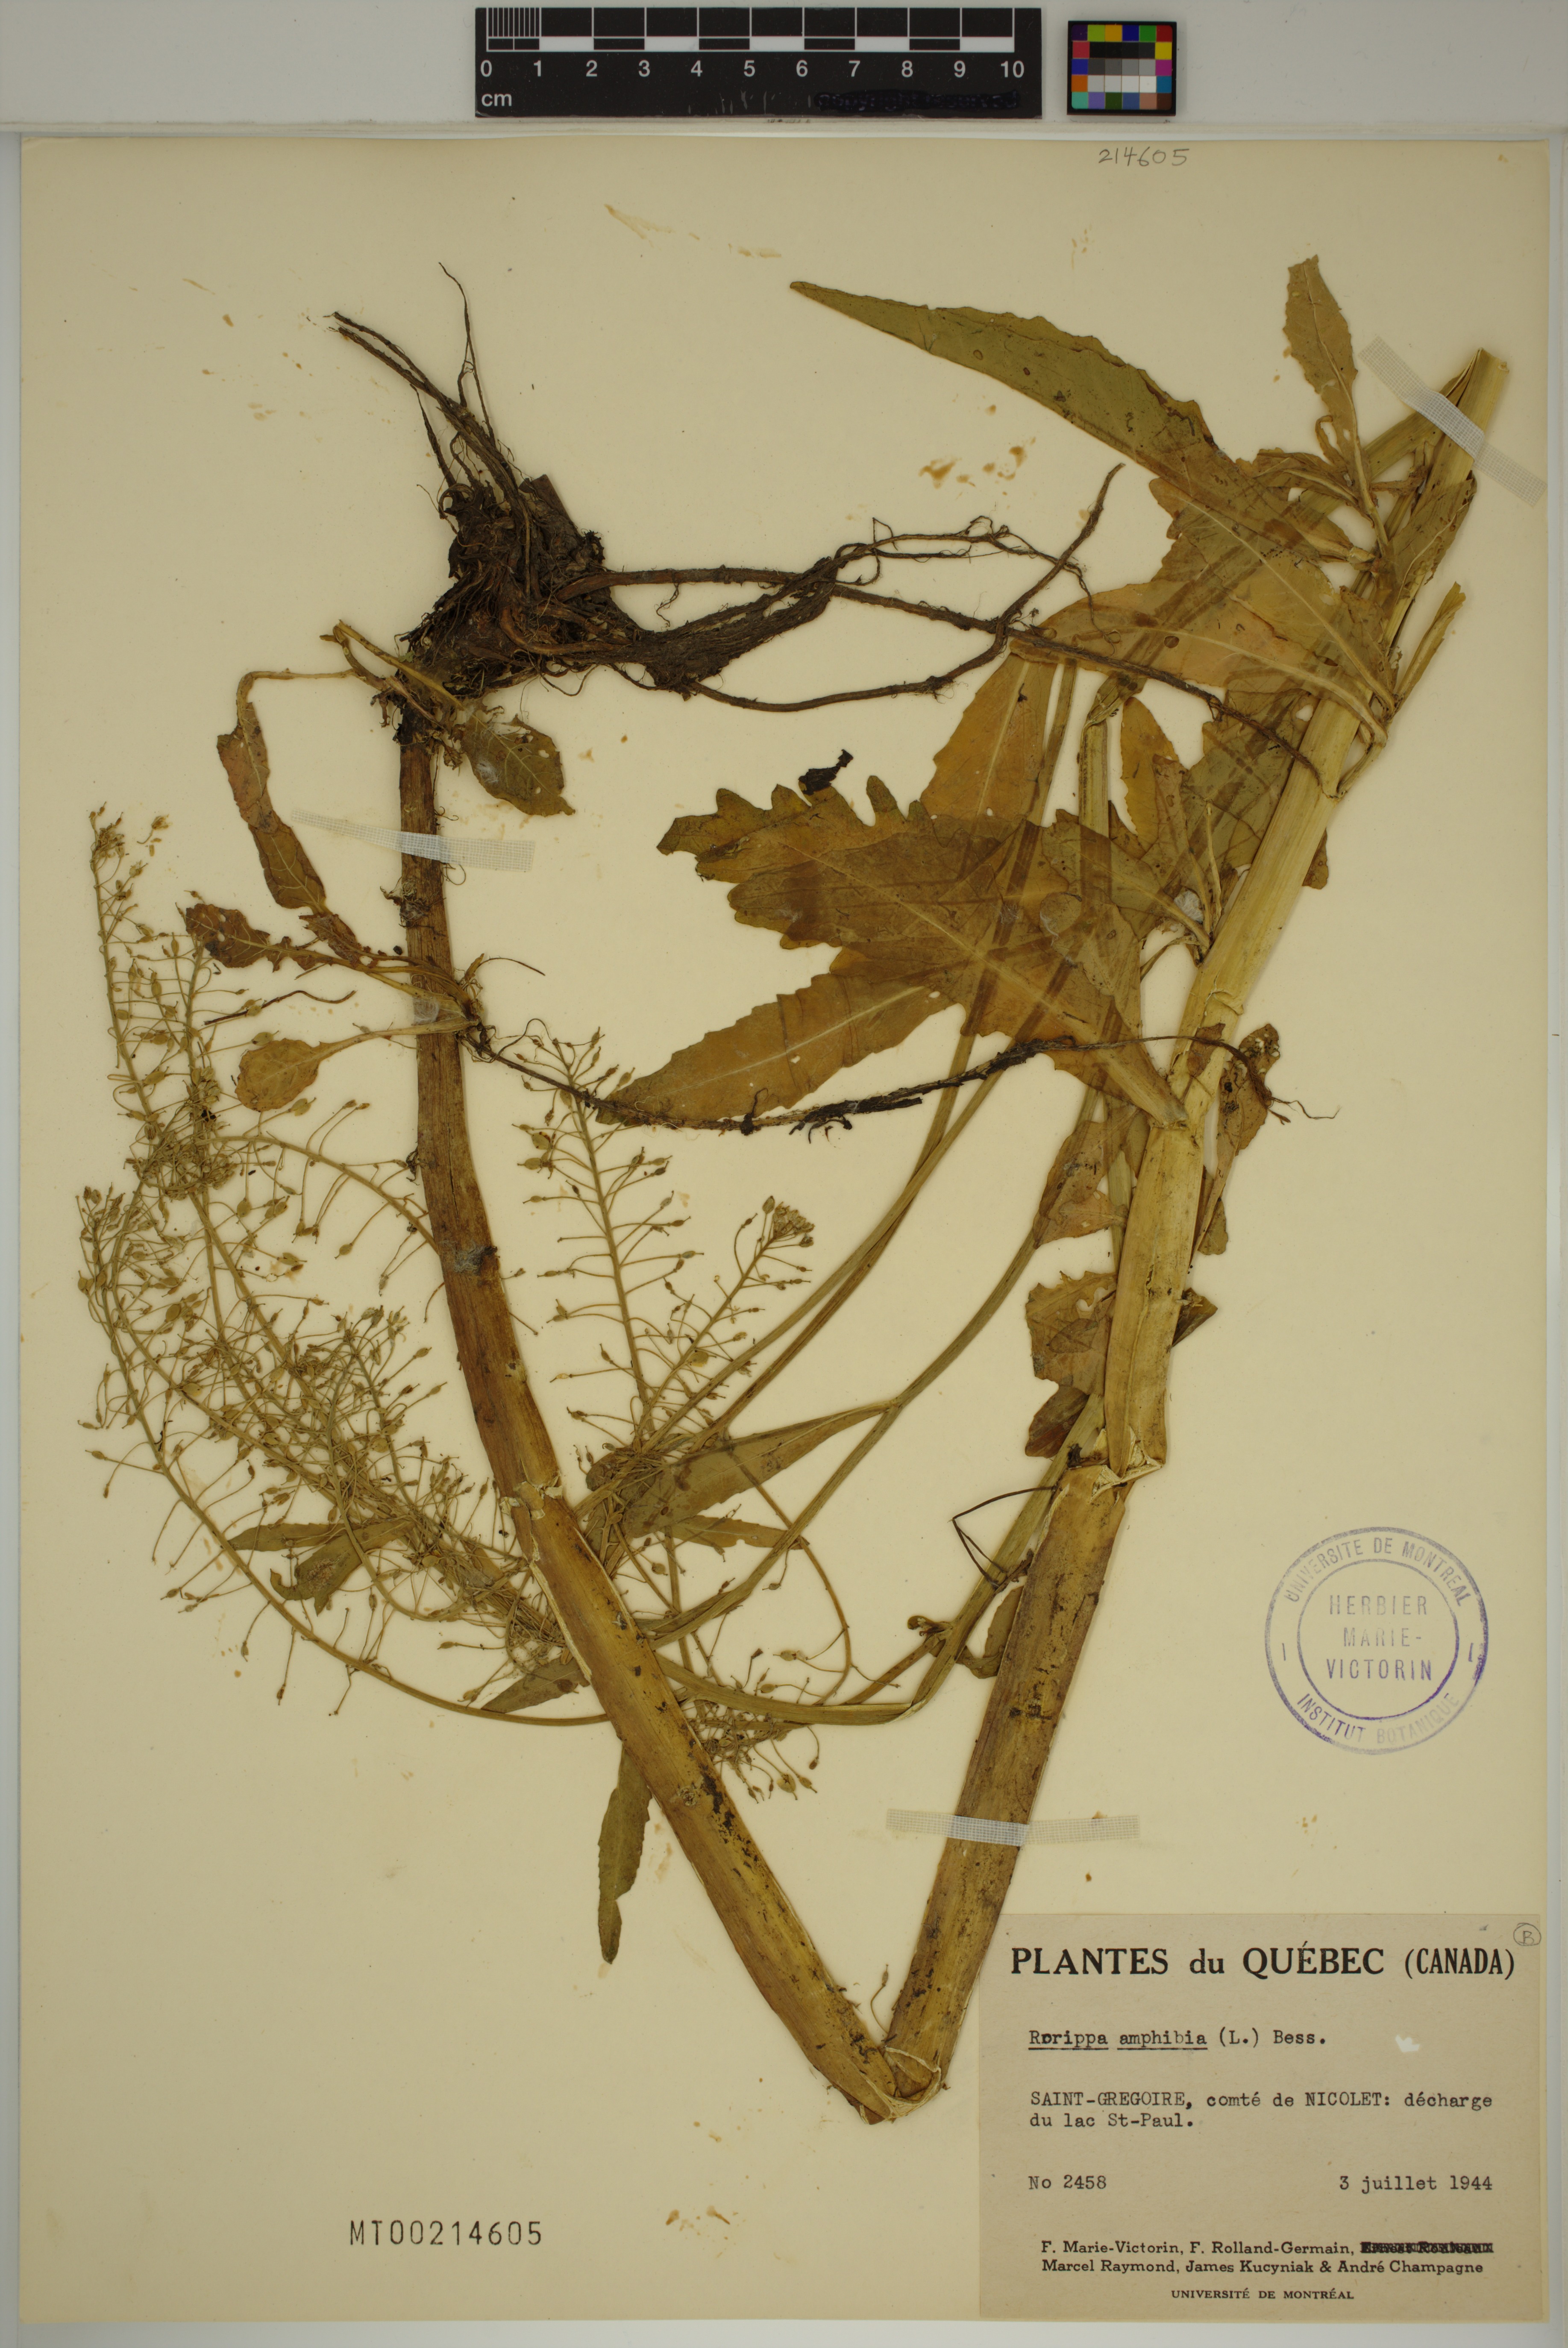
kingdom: Plantae
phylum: Tracheophyta
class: Magnoliopsida
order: Brassicales
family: Brassicaceae
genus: Rorippa
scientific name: Rorippa amphibia
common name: Great yellow-cress
